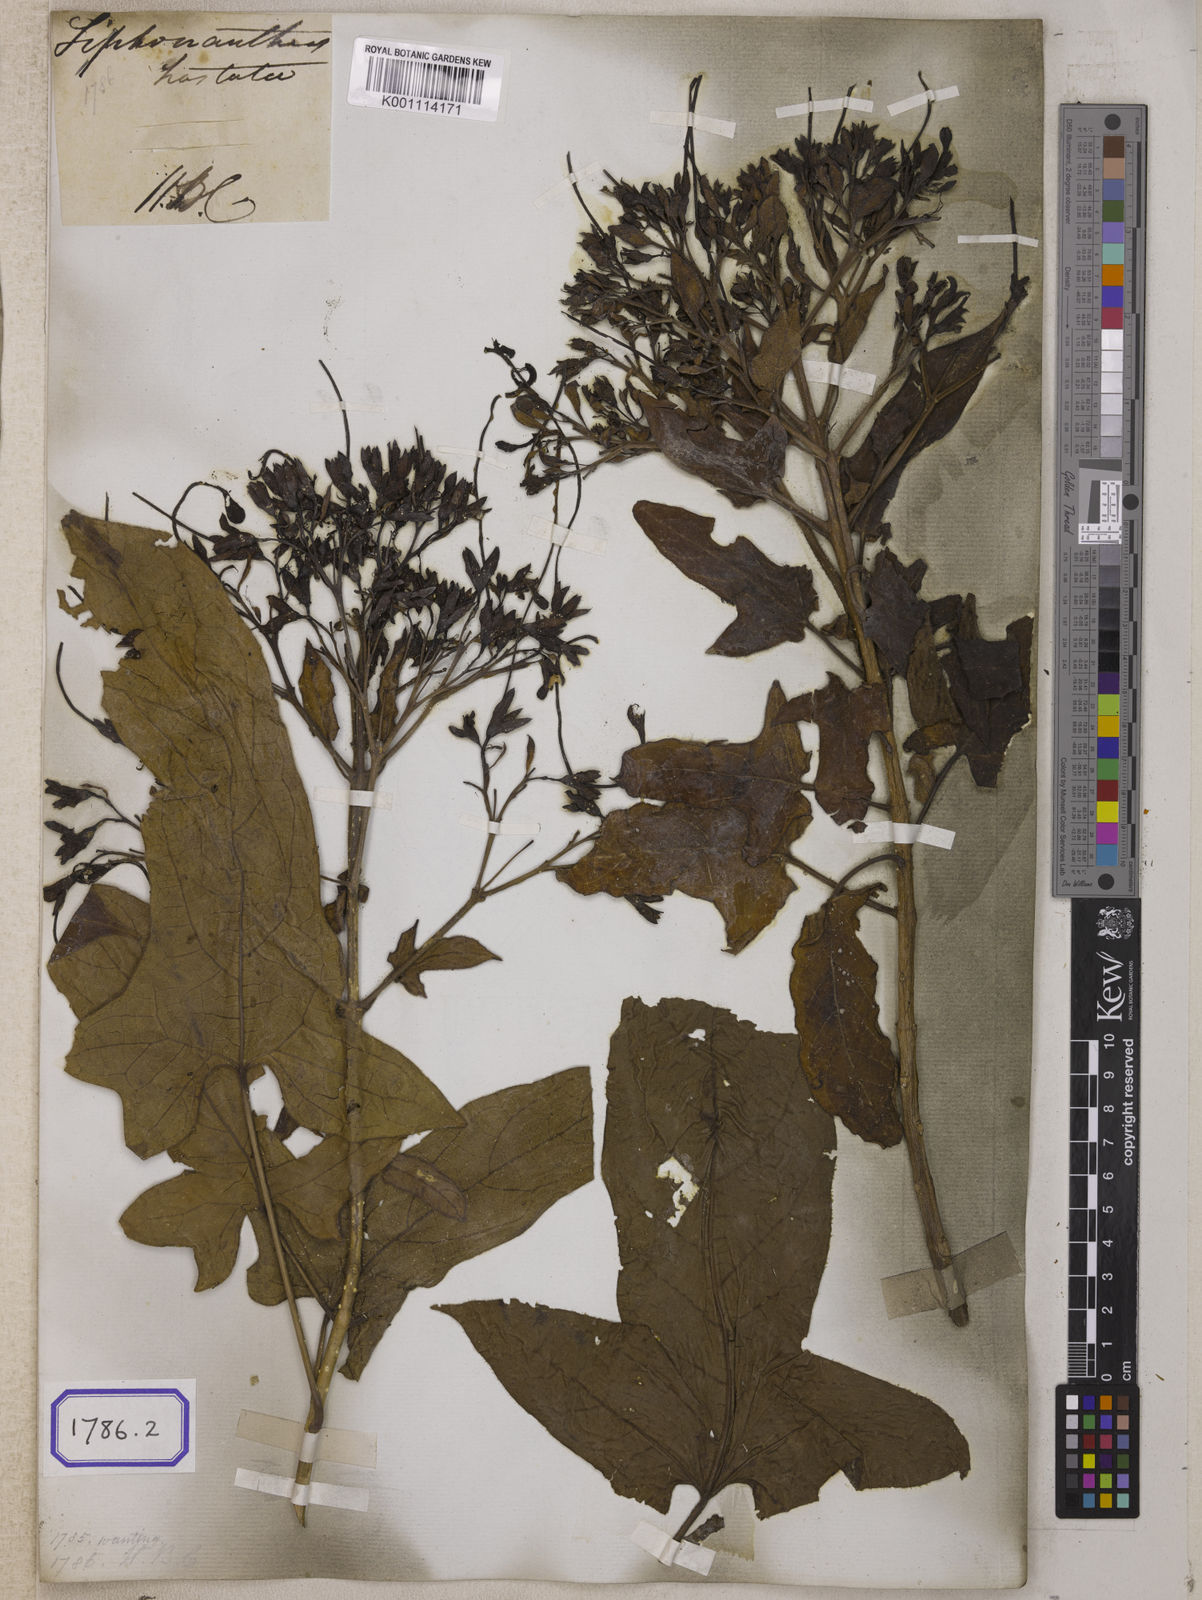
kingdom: Plantae
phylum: Tracheophyta
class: Magnoliopsida
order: Lamiales
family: Lamiaceae
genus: Clerodendrum
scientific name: Clerodendrum
